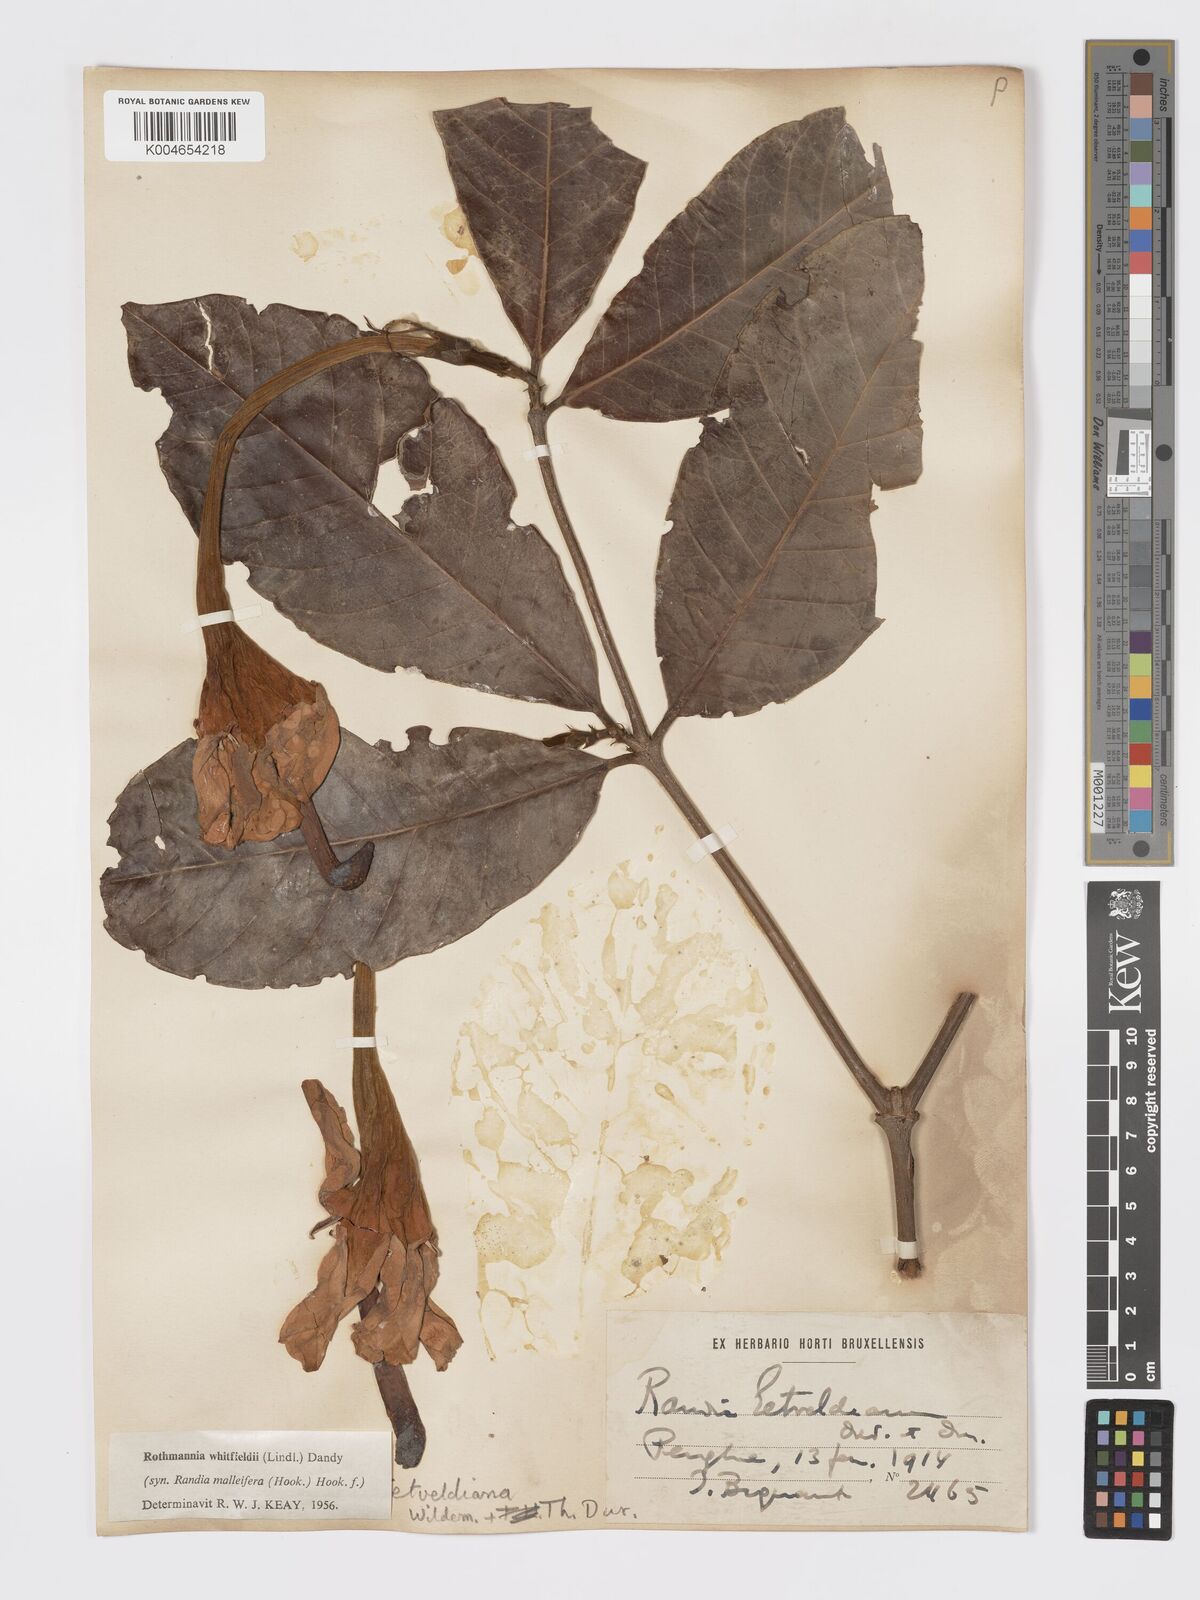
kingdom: Plantae
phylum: Tracheophyta
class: Magnoliopsida
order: Gentianales
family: Rubiaceae
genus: Rothmannia
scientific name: Rothmannia whitfieldii
